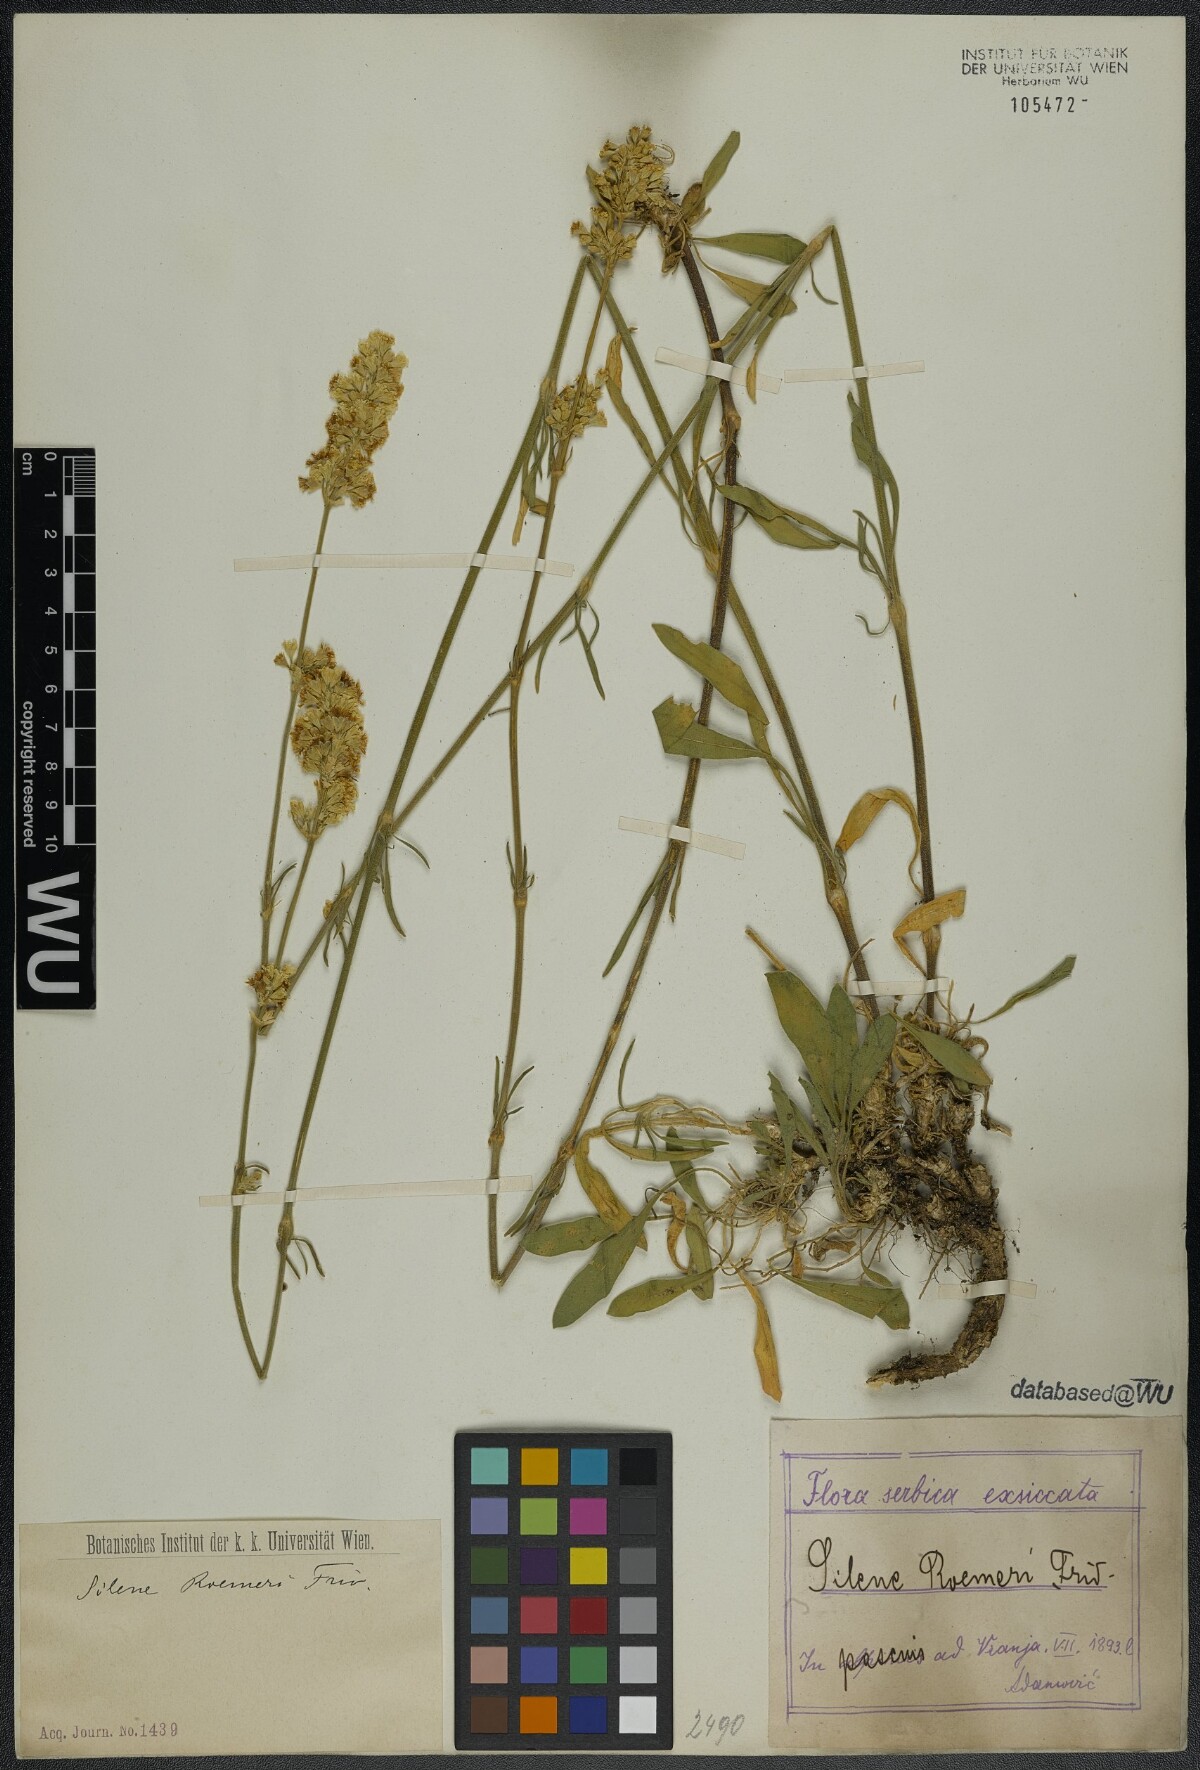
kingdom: Plantae
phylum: Tracheophyta
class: Magnoliopsida
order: Caryophyllales
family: Caryophyllaceae
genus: Silene
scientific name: Silene roemeri
